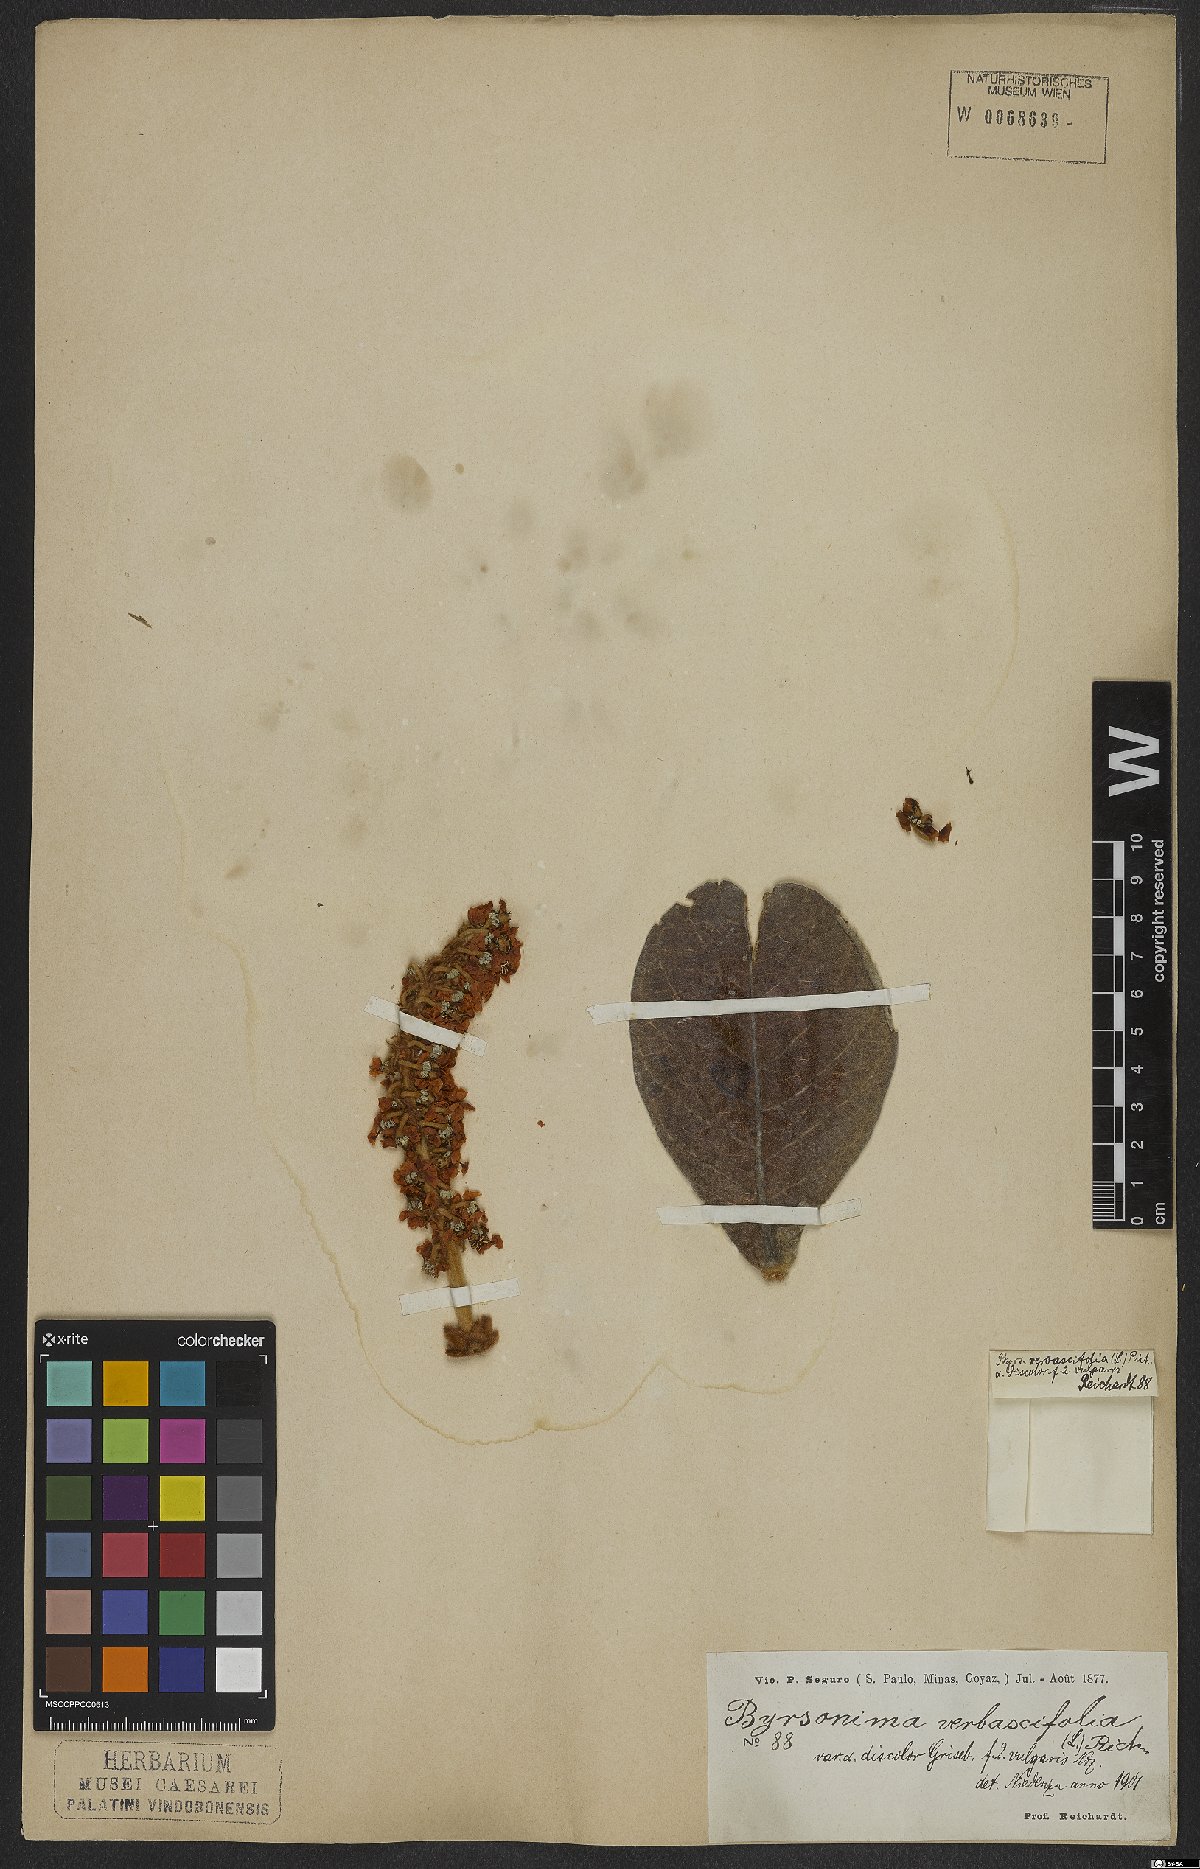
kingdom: Plantae
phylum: Tracheophyta
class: Magnoliopsida
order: Malpighiales
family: Malpighiaceae
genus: Byrsonima
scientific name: Byrsonima verbascifolia
